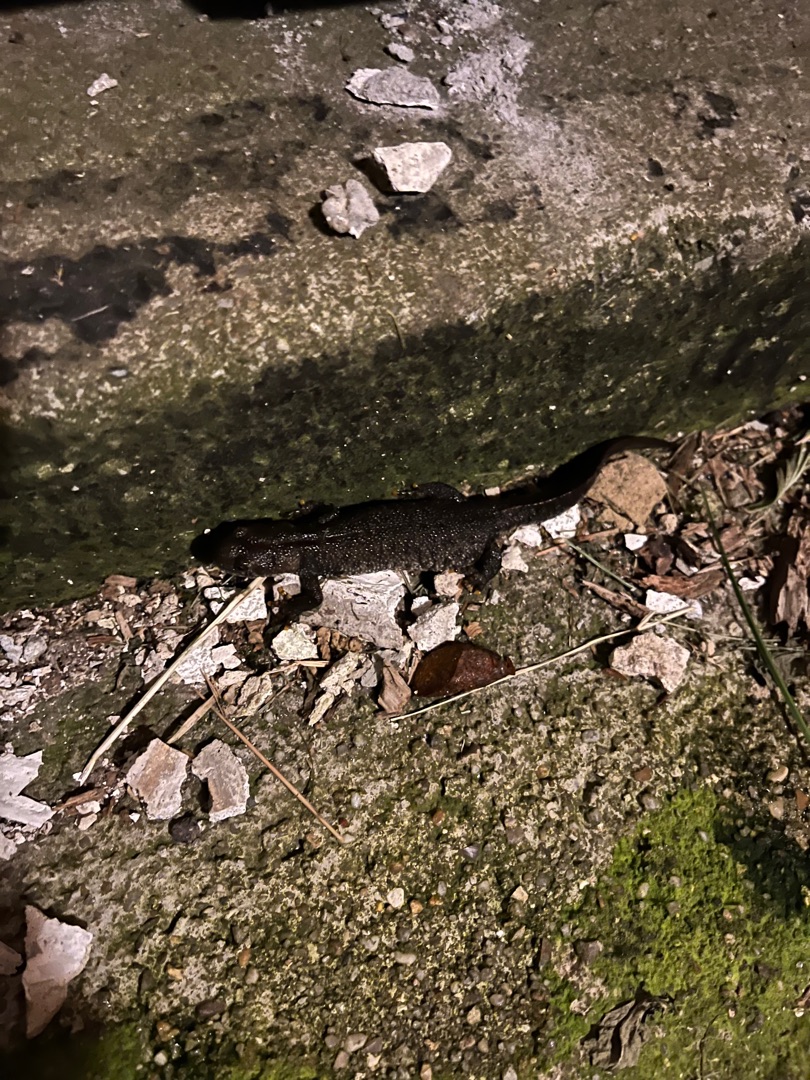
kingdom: Animalia
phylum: Chordata
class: Amphibia
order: Caudata
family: Salamandridae
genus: Triturus
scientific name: Triturus cristatus
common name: Stor vandsalamander
